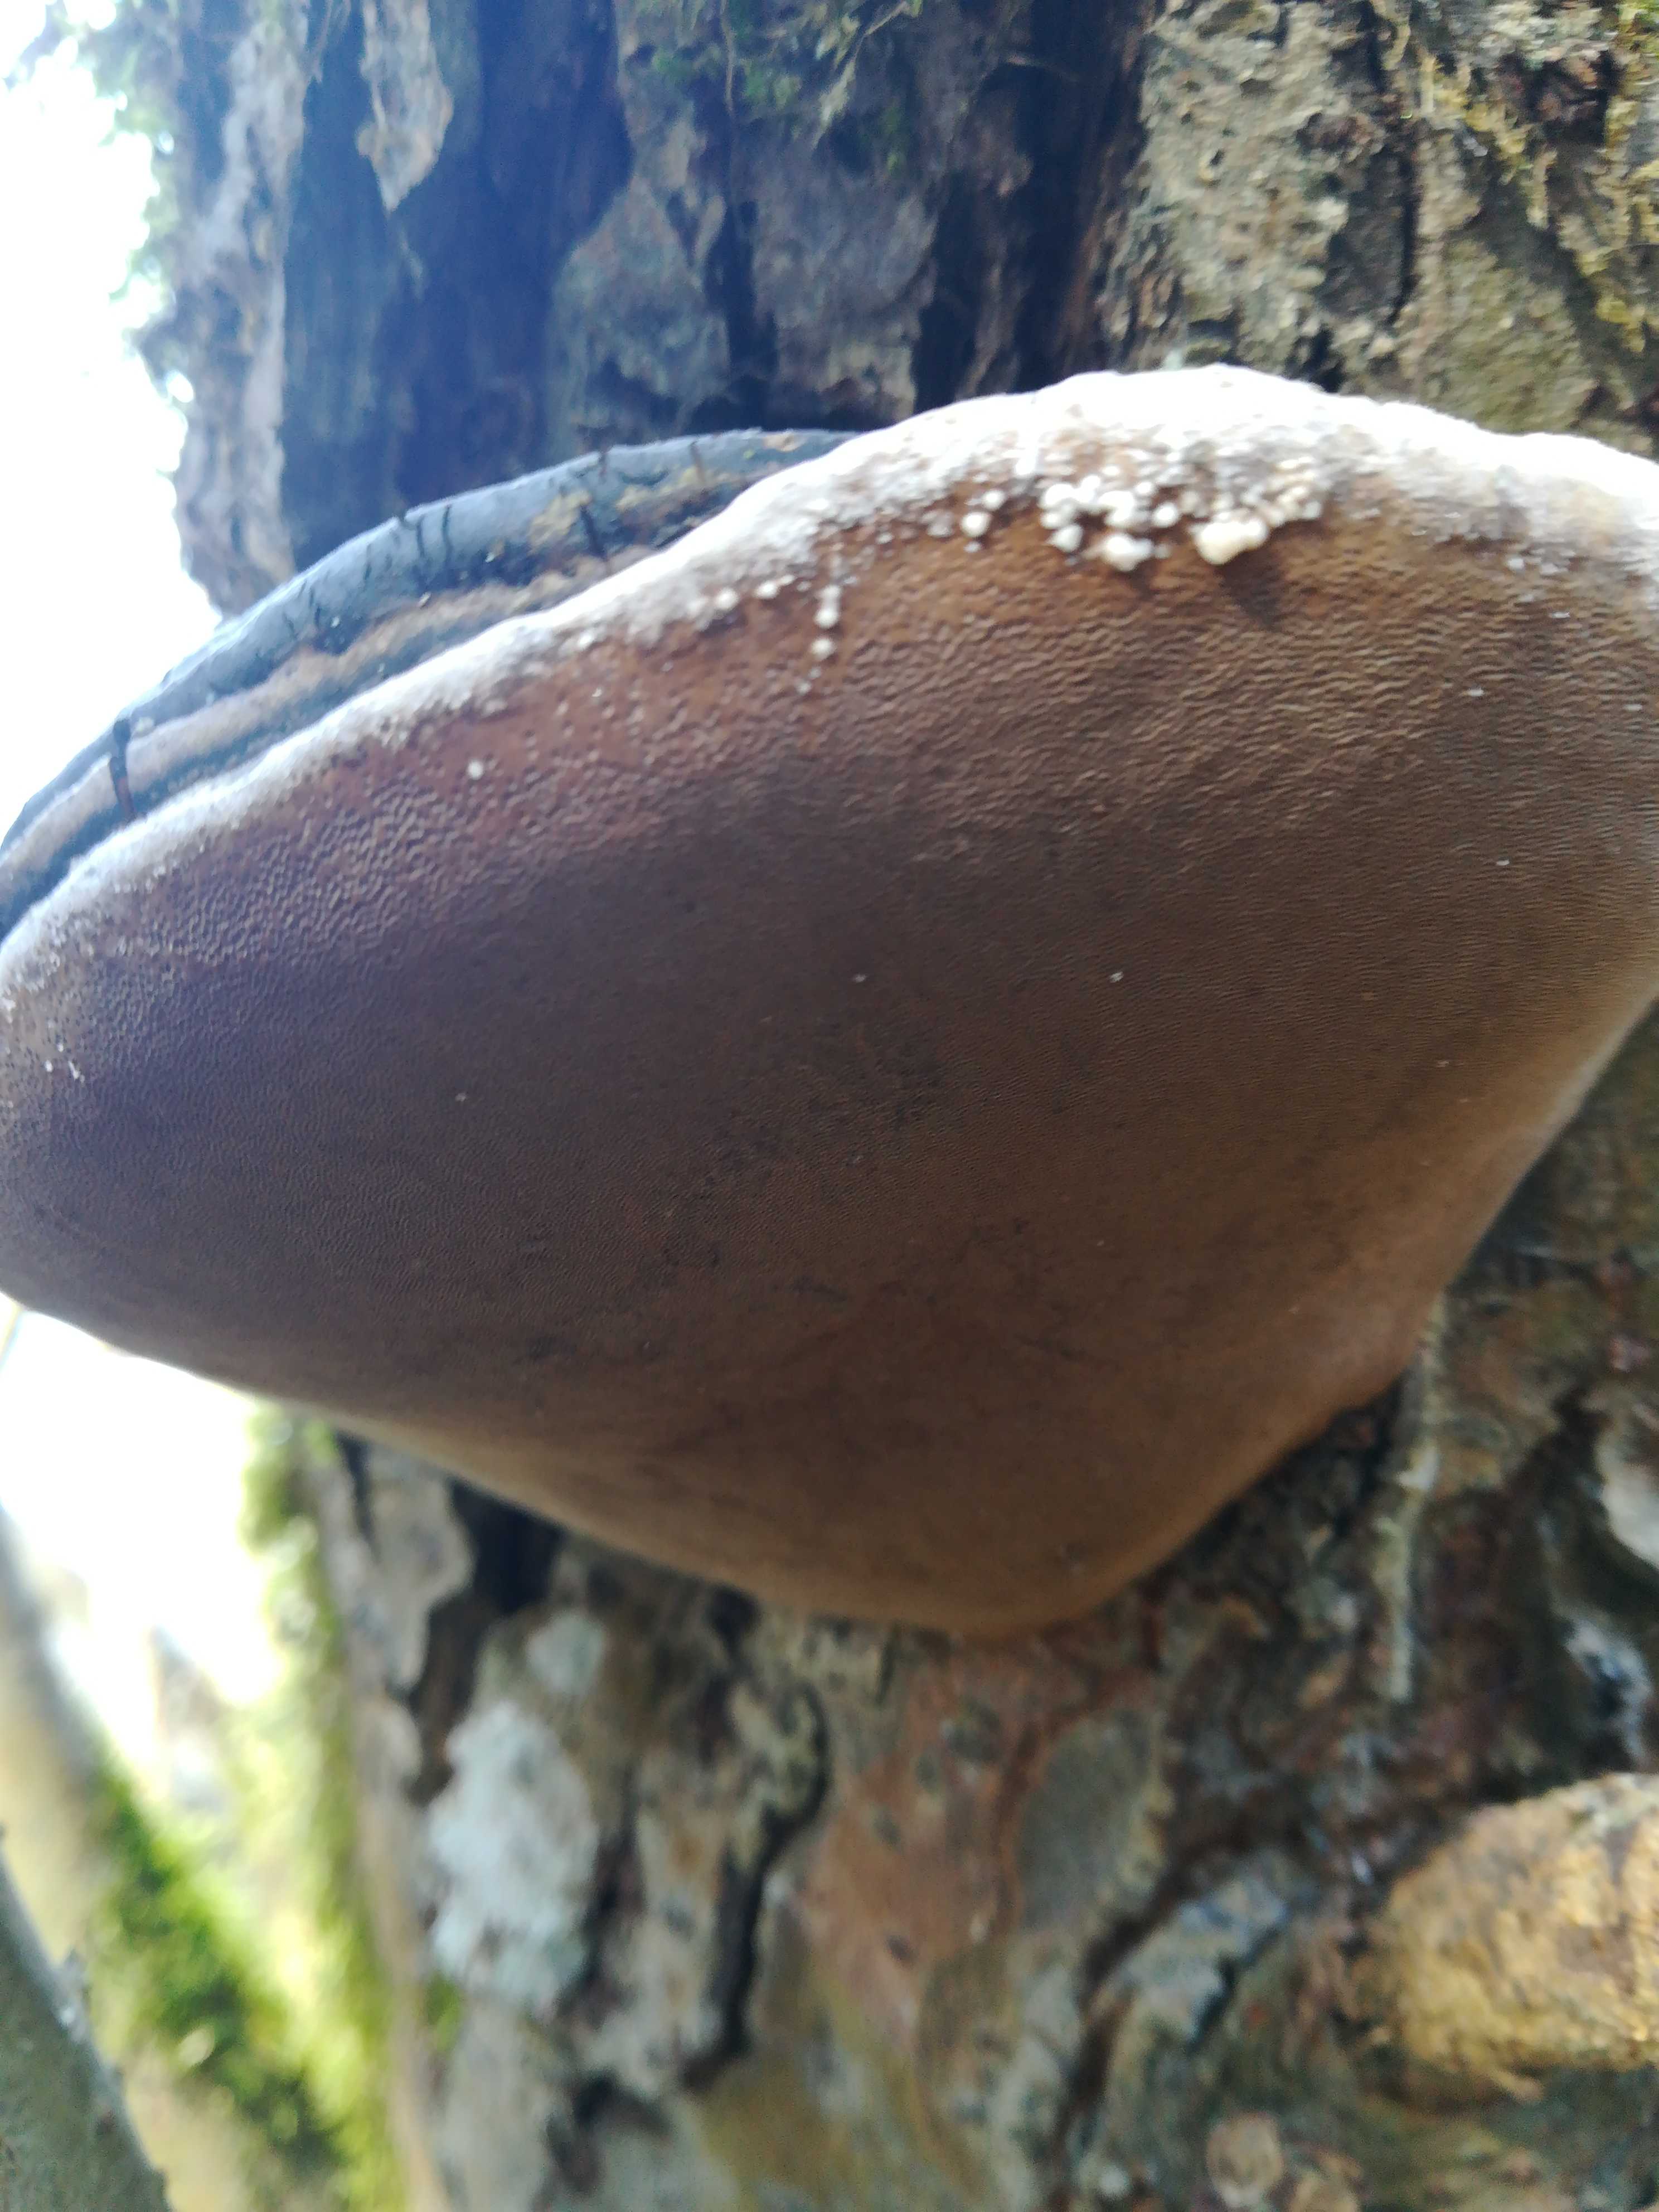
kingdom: Fungi
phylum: Basidiomycota
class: Agaricomycetes
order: Hymenochaetales
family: Hymenochaetaceae
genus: Phellinus
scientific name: Phellinus igniarius
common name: almindelig ildporesvamp
